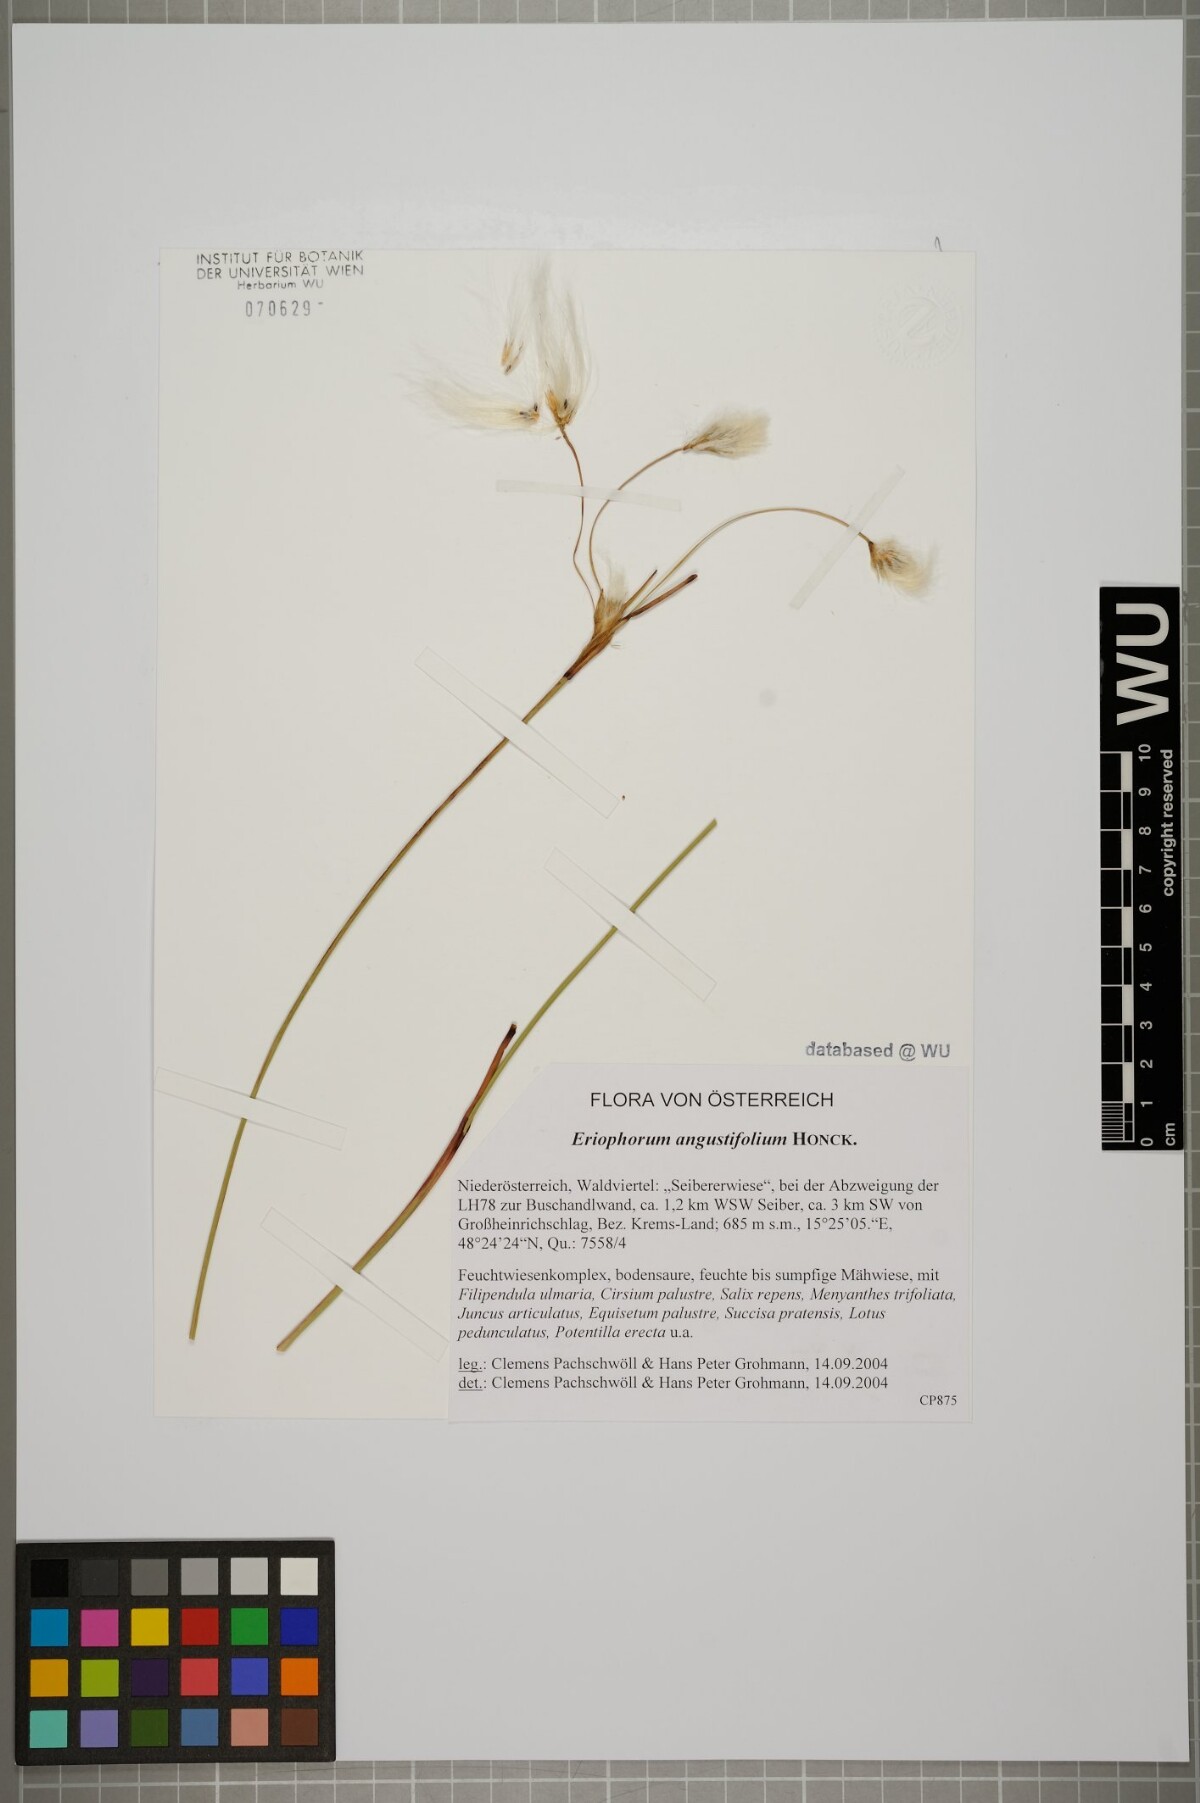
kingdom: Plantae
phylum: Tracheophyta
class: Liliopsida
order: Poales
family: Cyperaceae
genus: Eriophorum
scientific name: Eriophorum angustifolium
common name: Common cottongrass
